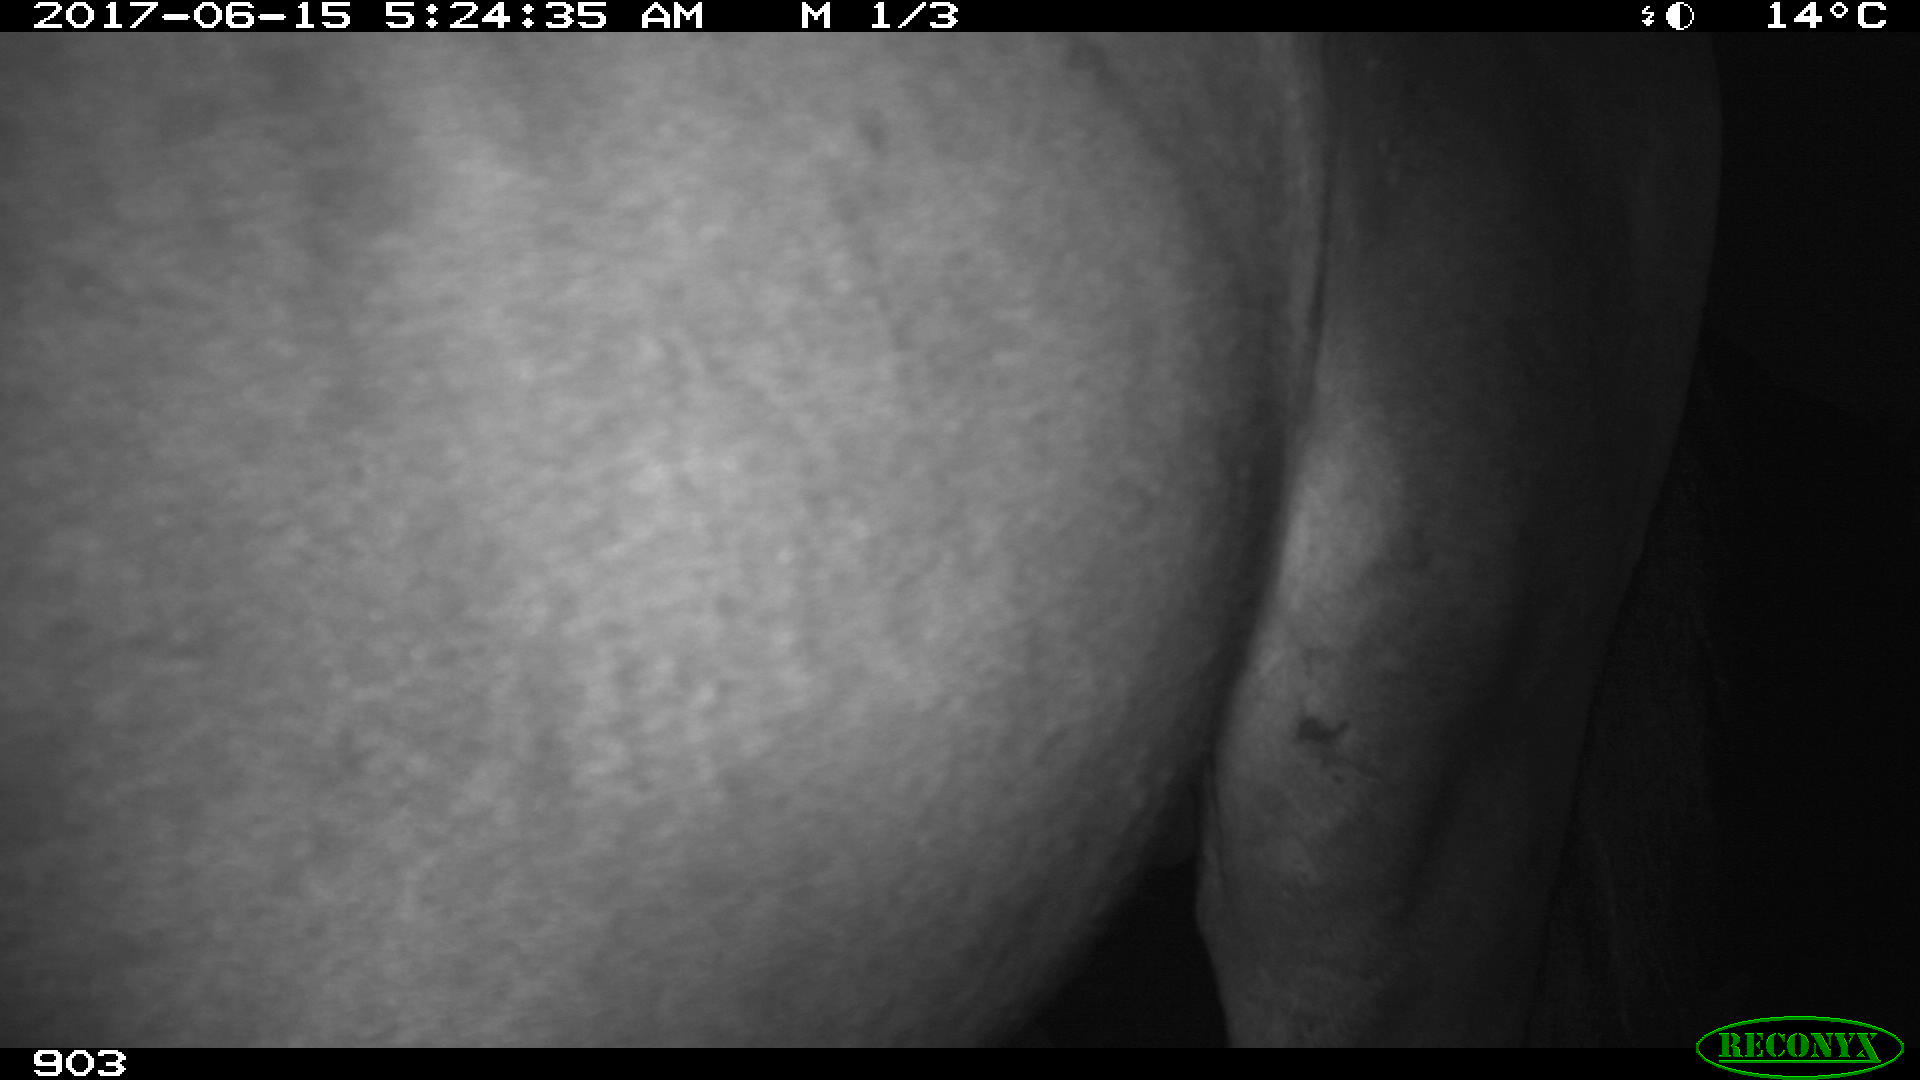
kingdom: Animalia
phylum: Chordata
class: Mammalia
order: Perissodactyla
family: Equidae
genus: Equus
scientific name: Equus caballus
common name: Horse
